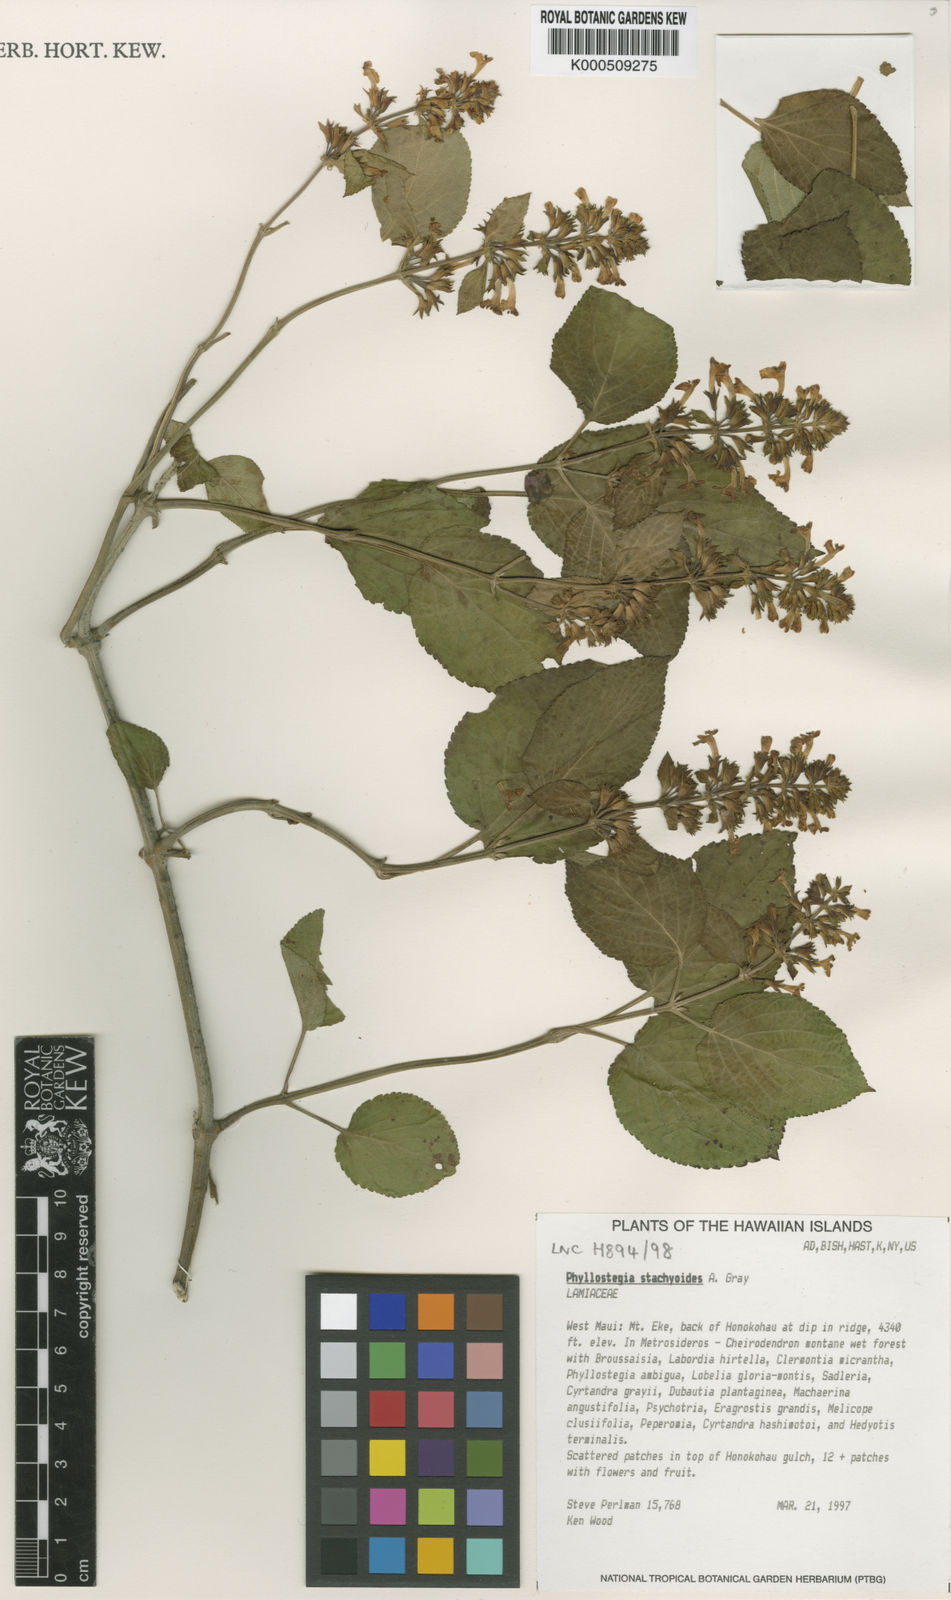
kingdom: Plantae
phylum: Tracheophyta
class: Magnoliopsida
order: Lamiales
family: Lamiaceae
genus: Phyllostegia
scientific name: Phyllostegia stachyoides
